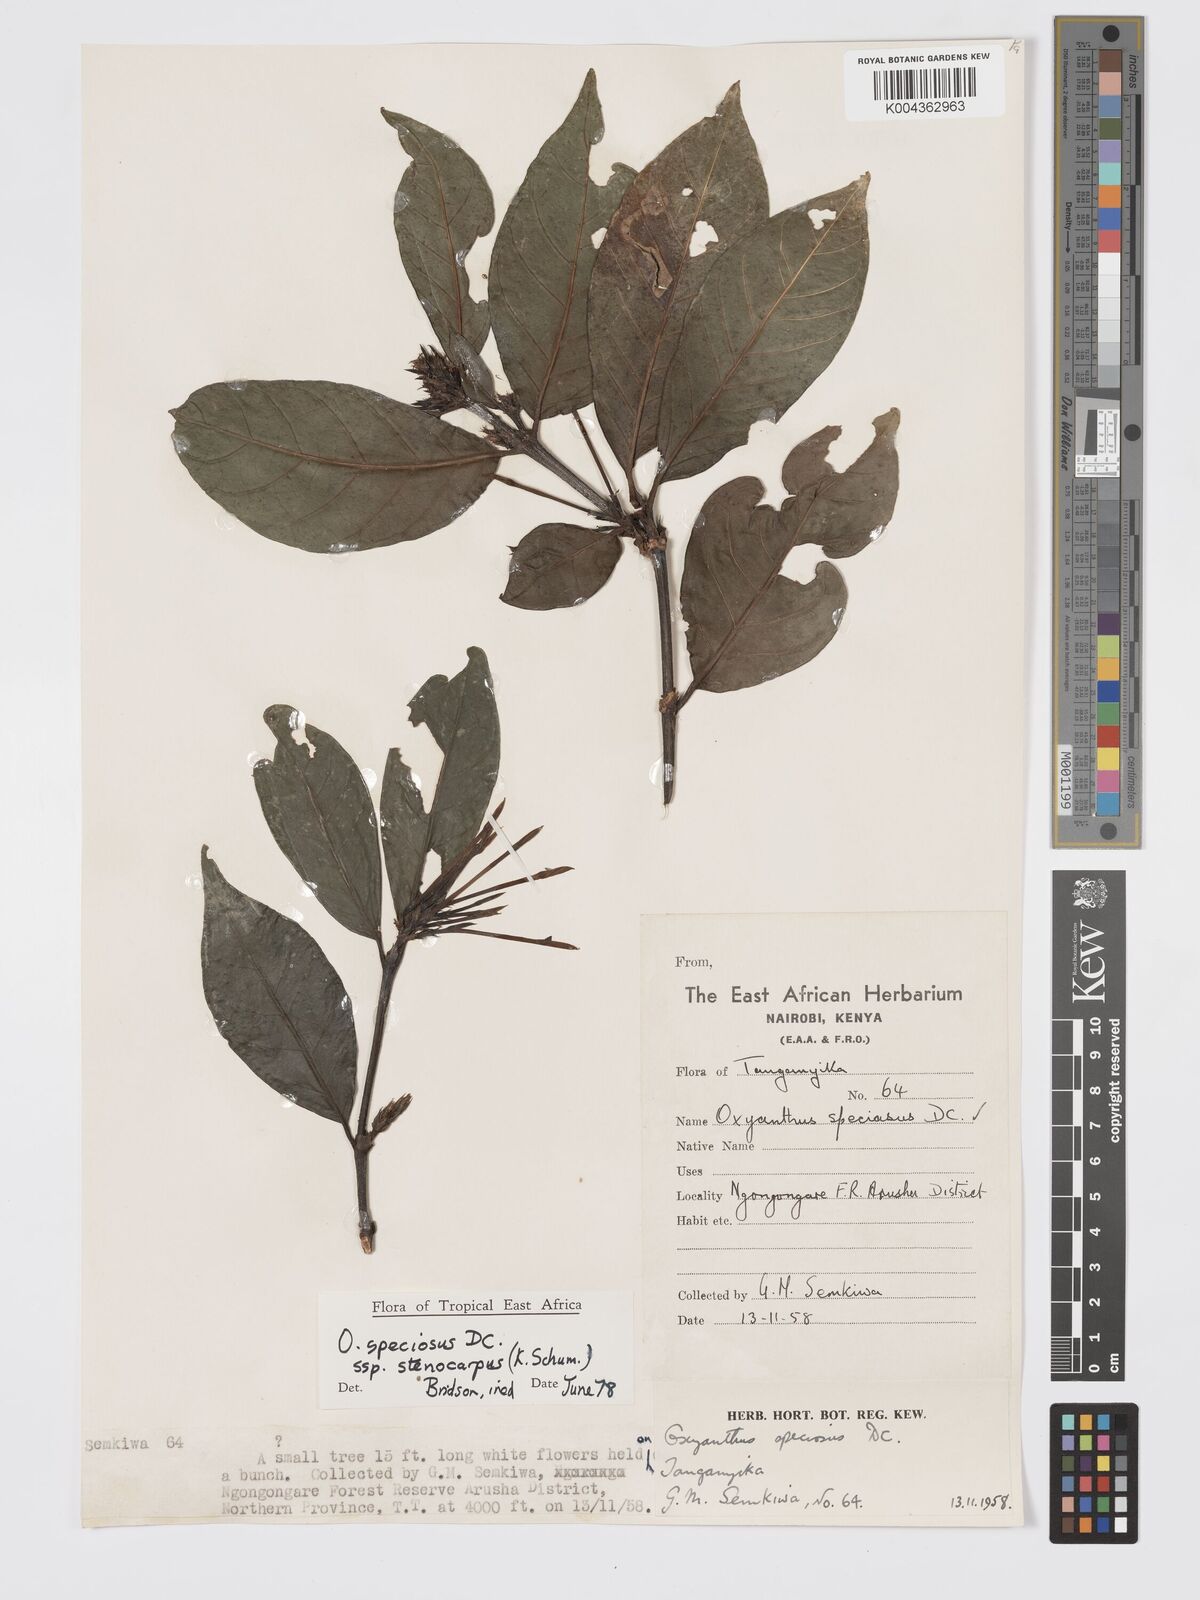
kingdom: Plantae
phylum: Tracheophyta
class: Magnoliopsida
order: Gentianales
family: Rubiaceae
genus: Oxyanthus
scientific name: Oxyanthus speciosus
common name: Whipstick loquat
